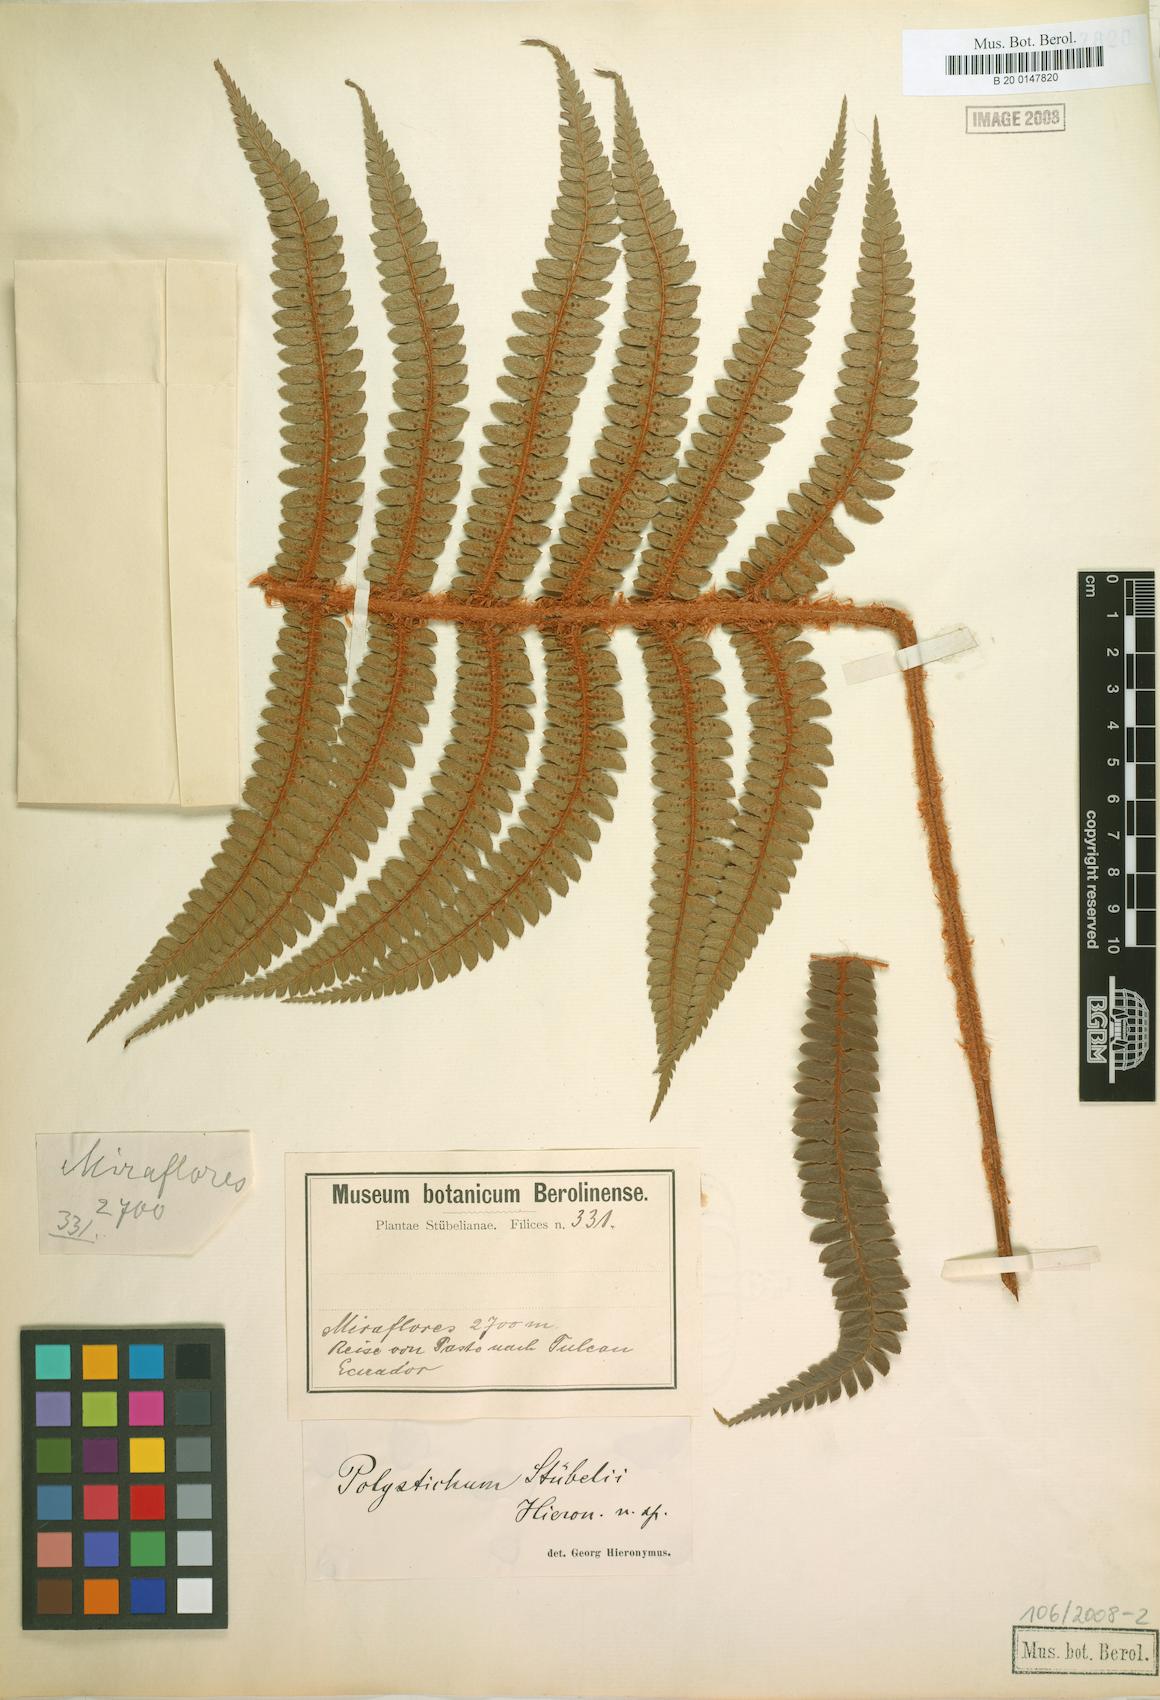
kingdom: Plantae
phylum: Tracheophyta
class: Polypodiopsida
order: Polypodiales
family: Dryopteridaceae
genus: Polystichum
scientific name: Polystichum stuebelii
